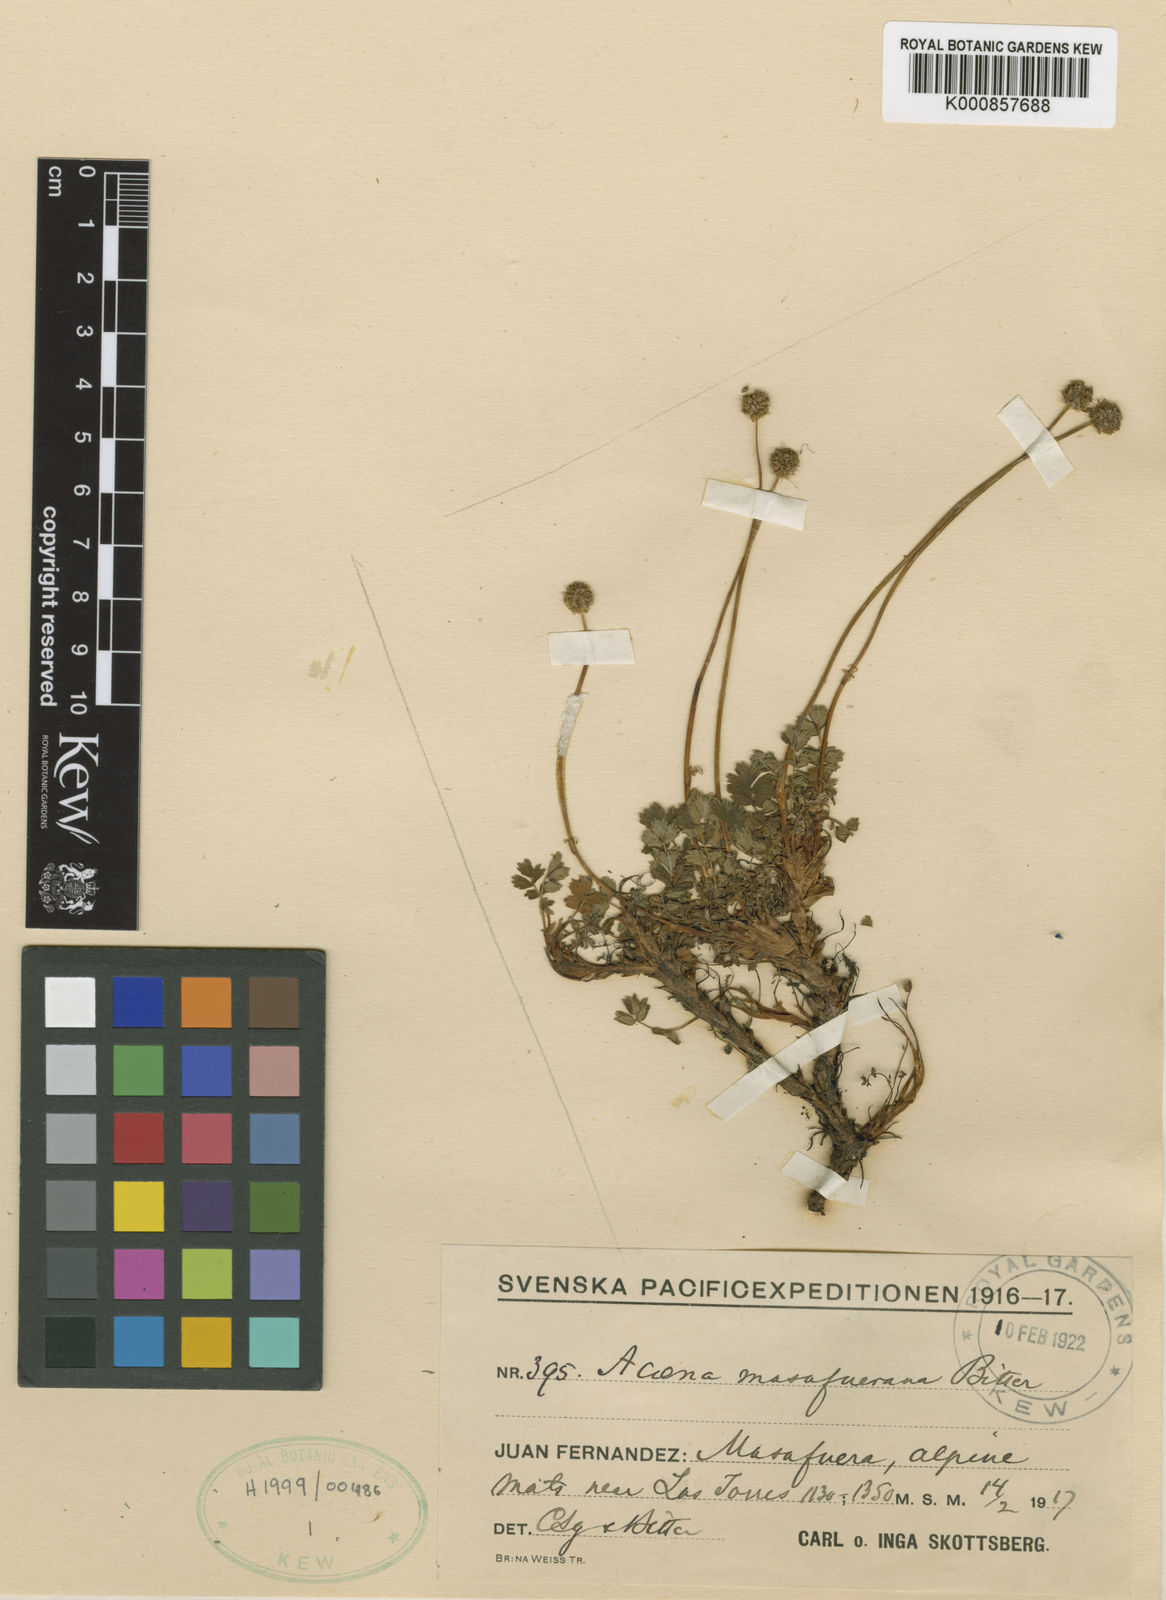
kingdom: Plantae
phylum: Tracheophyta
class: Magnoliopsida
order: Rosales
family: Rosaceae
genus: Acaena
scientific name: Acaena masafuerana
